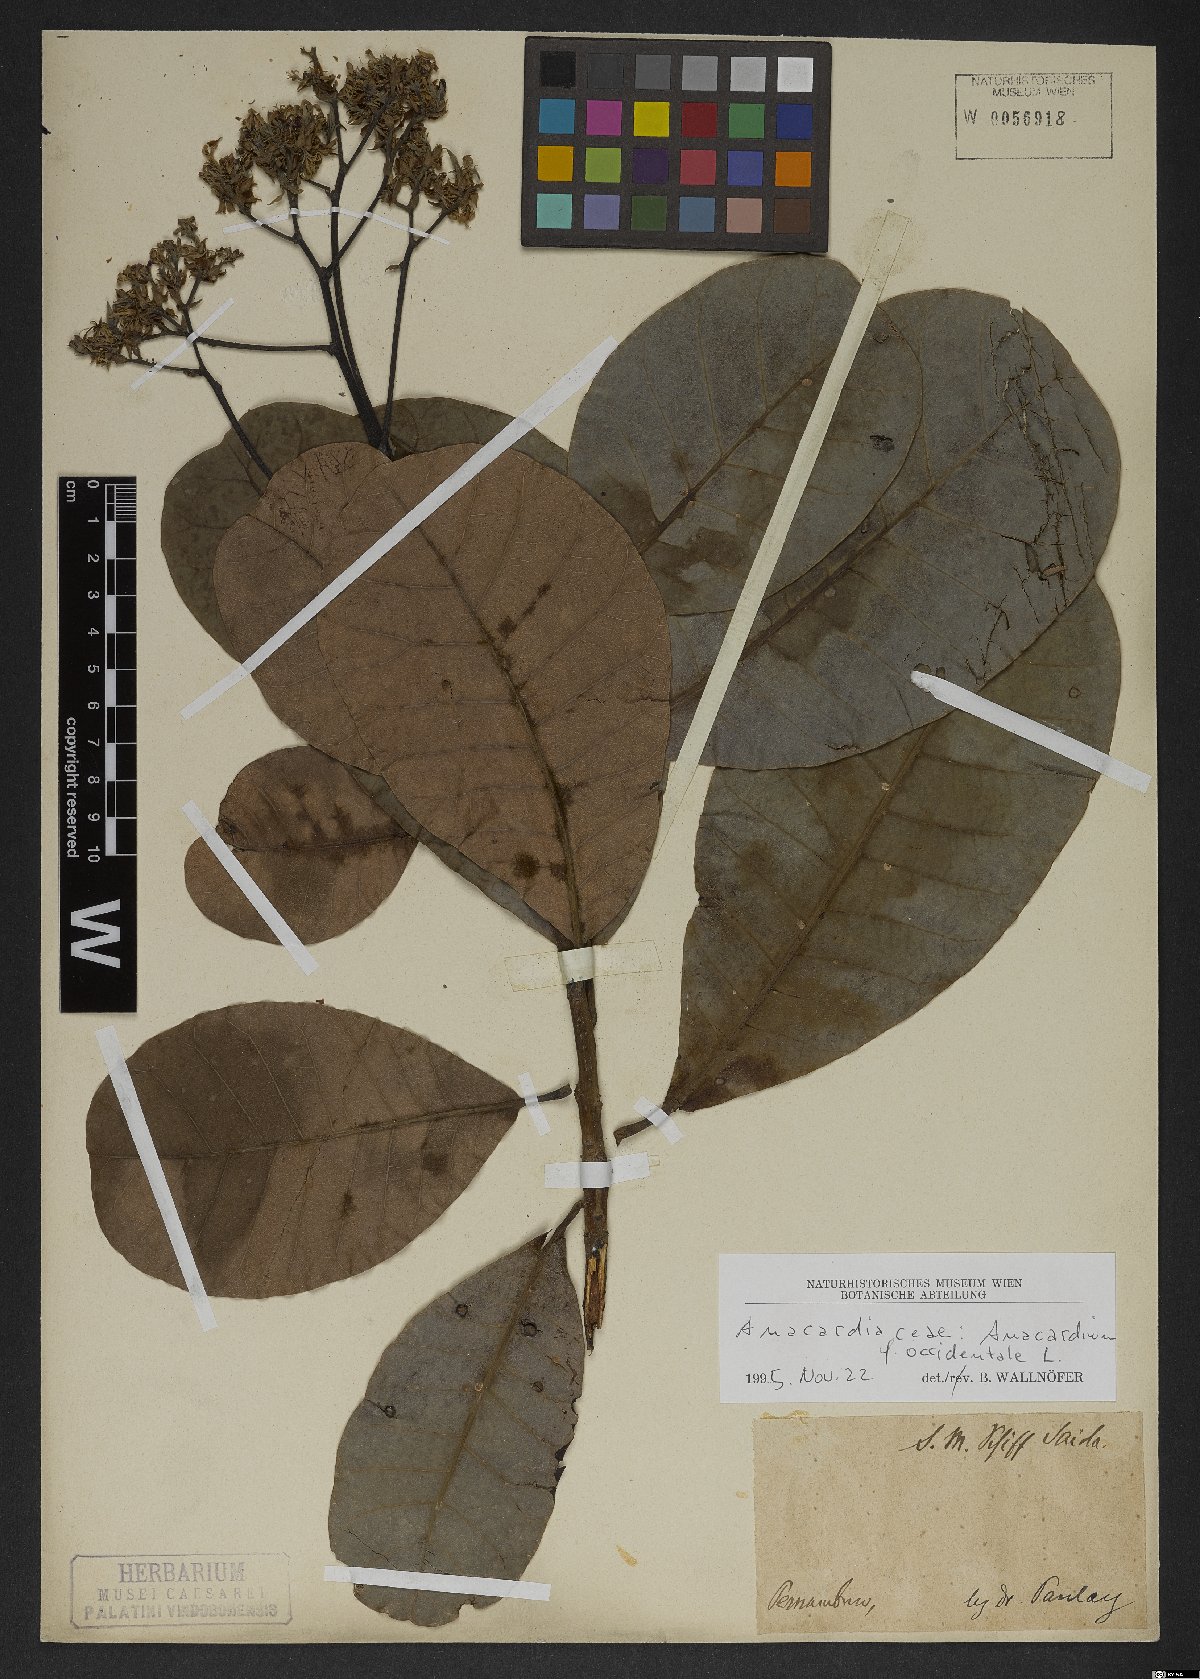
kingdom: Plantae
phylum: Tracheophyta
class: Magnoliopsida
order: Sapindales
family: Anacardiaceae
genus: Anacardium
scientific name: Anacardium occidentale
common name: Cashew
